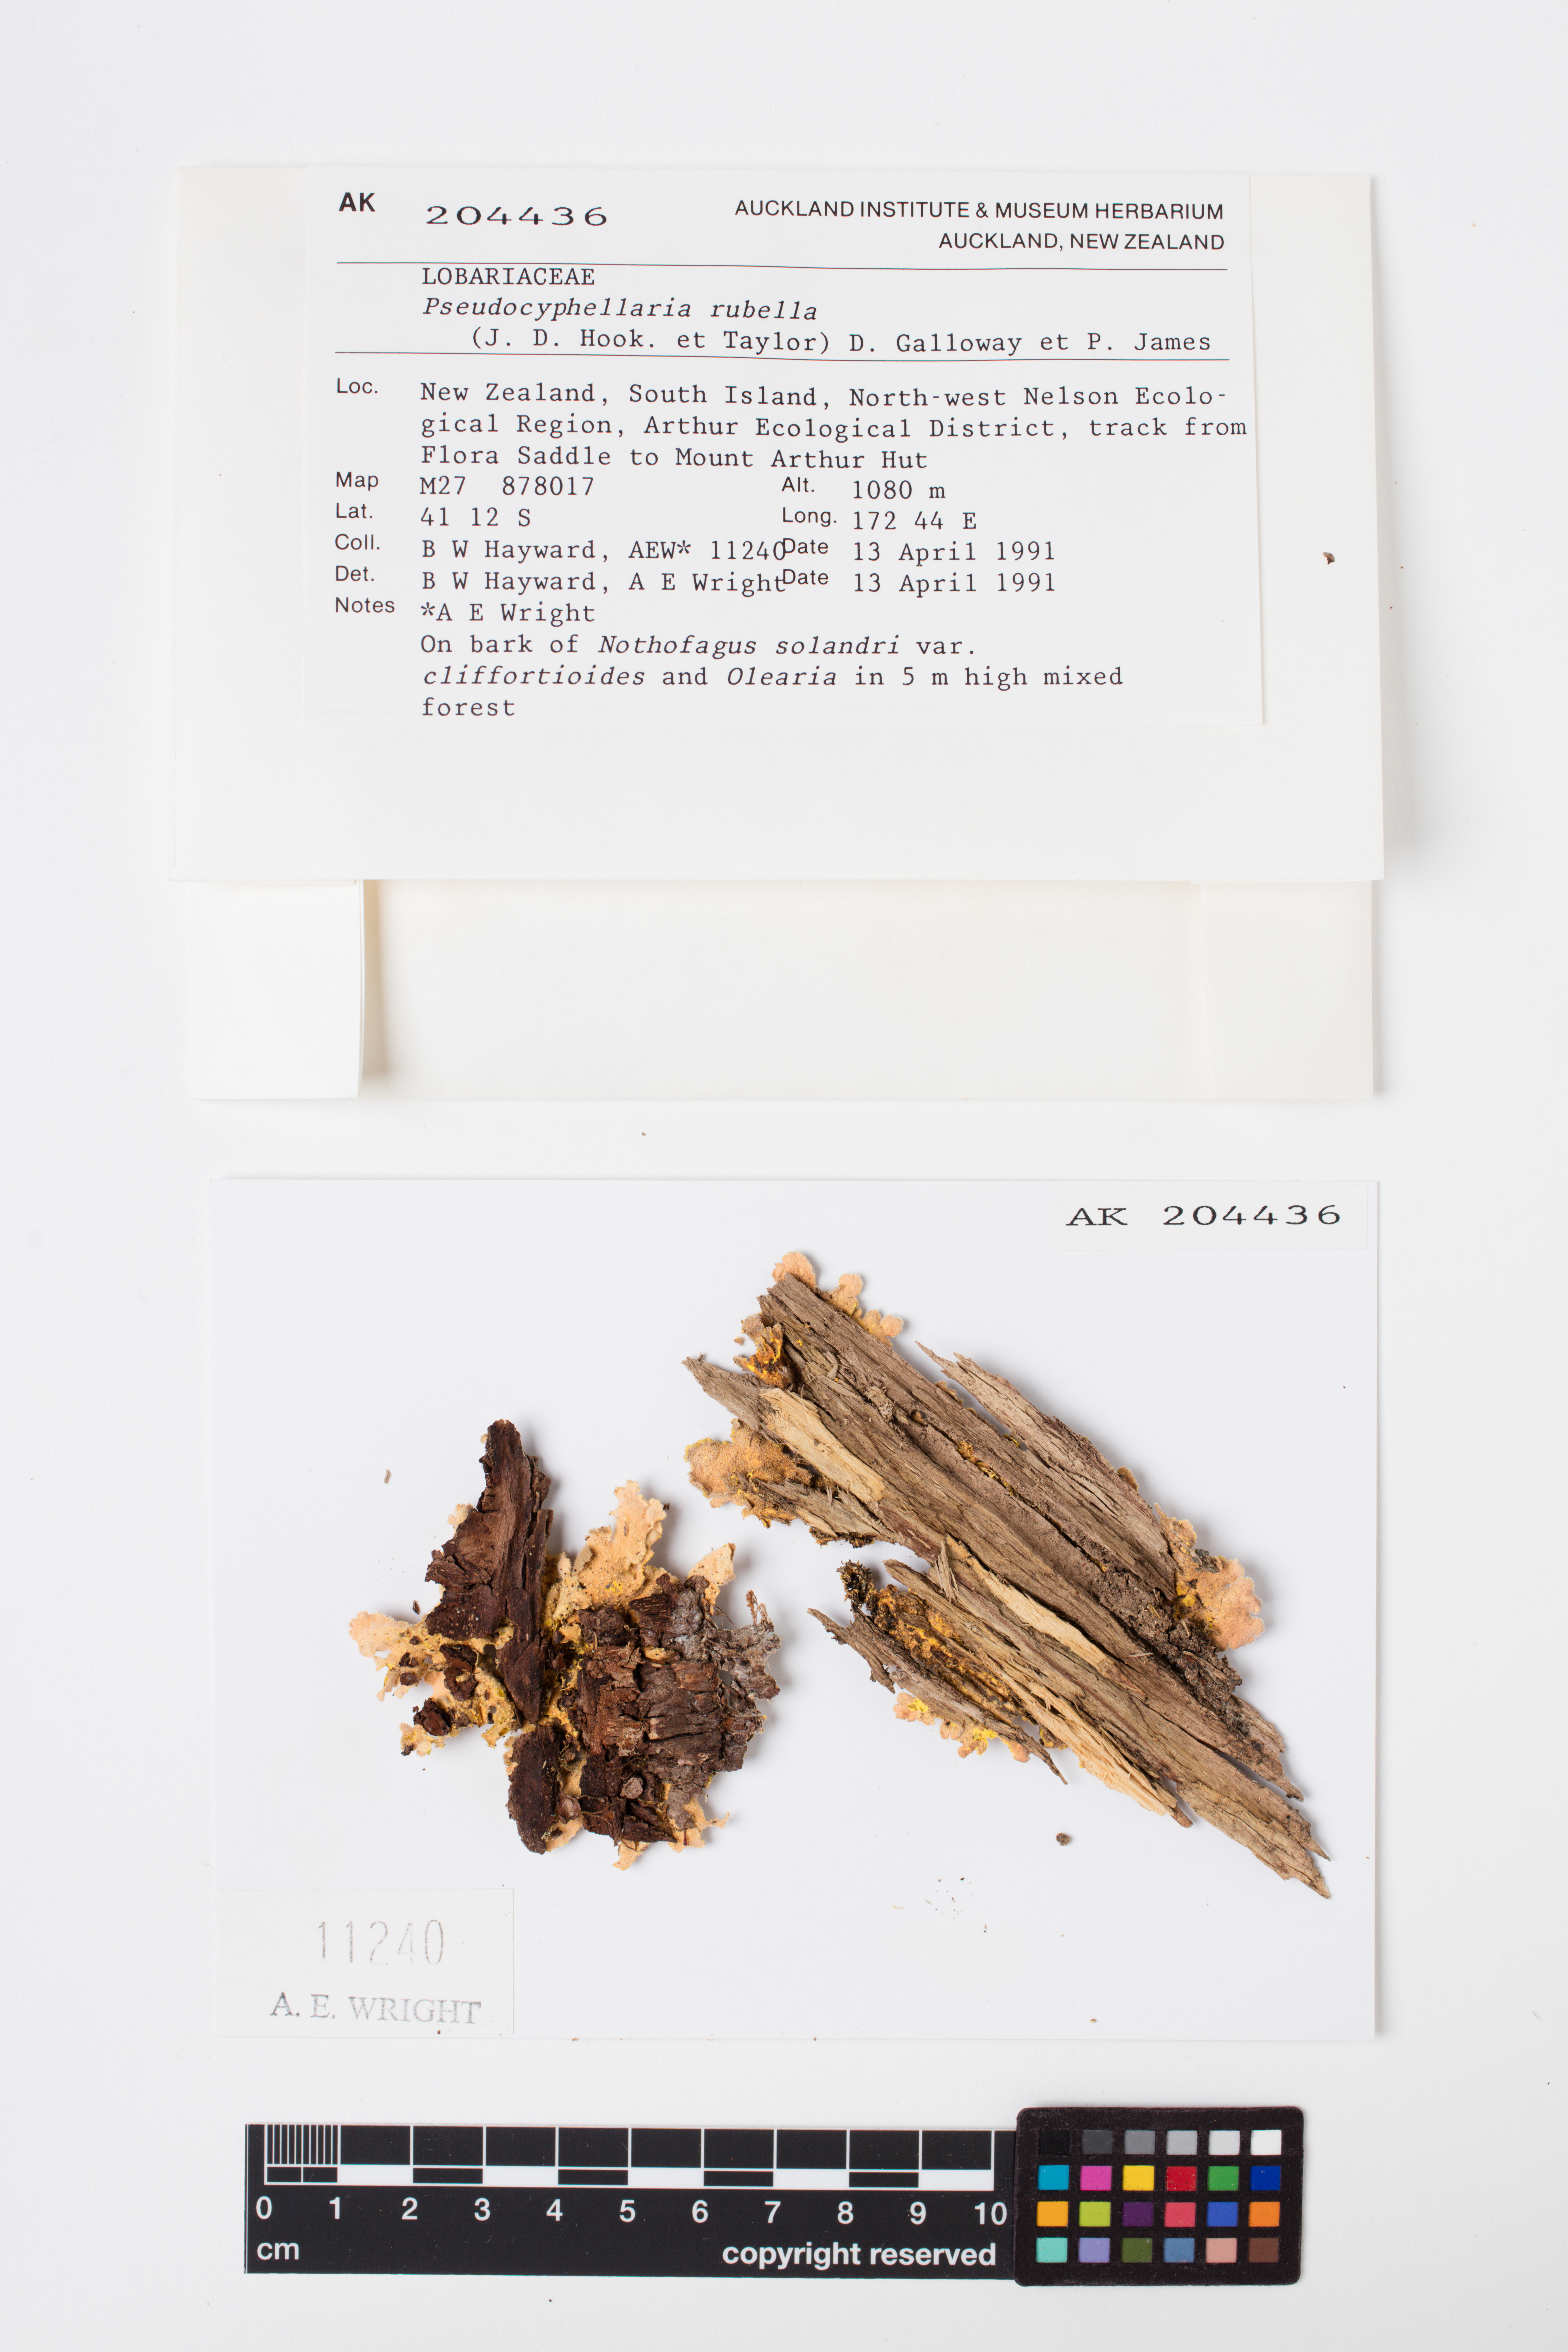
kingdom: Fungi
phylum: Ascomycota
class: Lecanoromycetes
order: Peltigerales
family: Lobariaceae
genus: Pseudocyphellaria
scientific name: Pseudocyphellaria rubella
